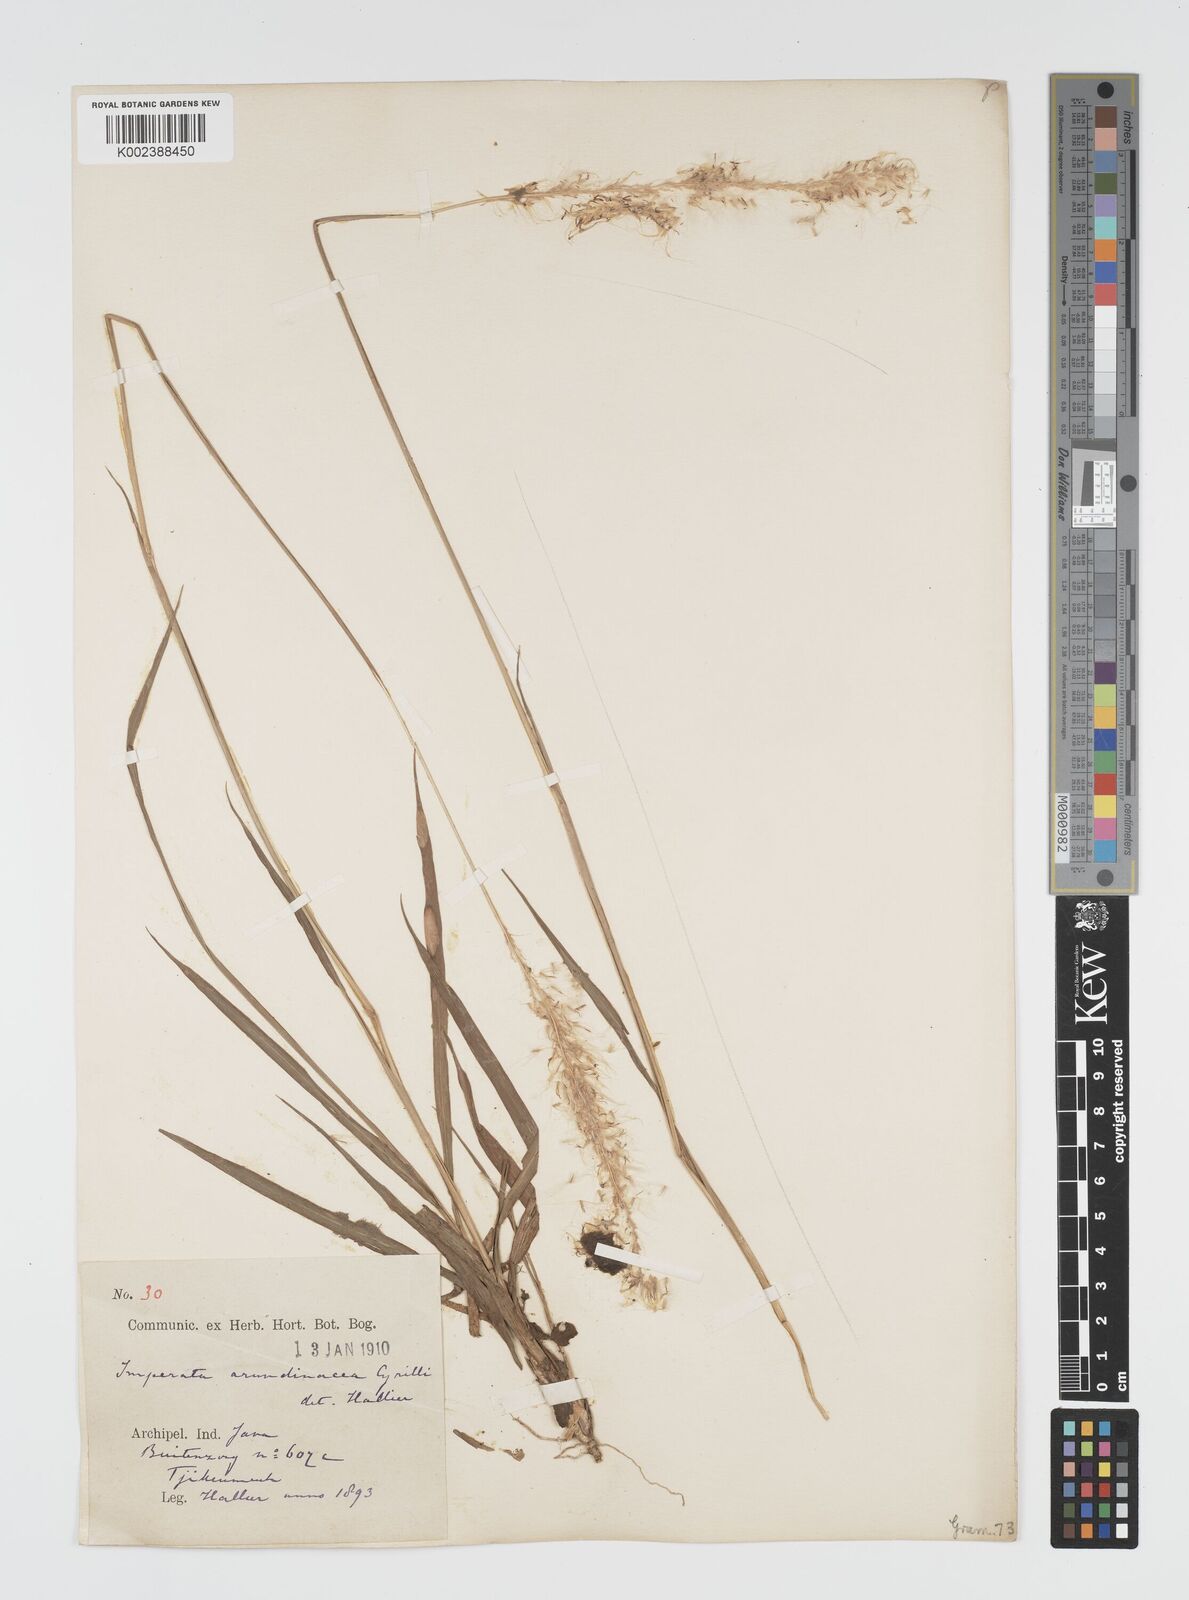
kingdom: Plantae
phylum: Tracheophyta
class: Liliopsida
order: Poales
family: Poaceae
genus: Imperata
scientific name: Imperata
